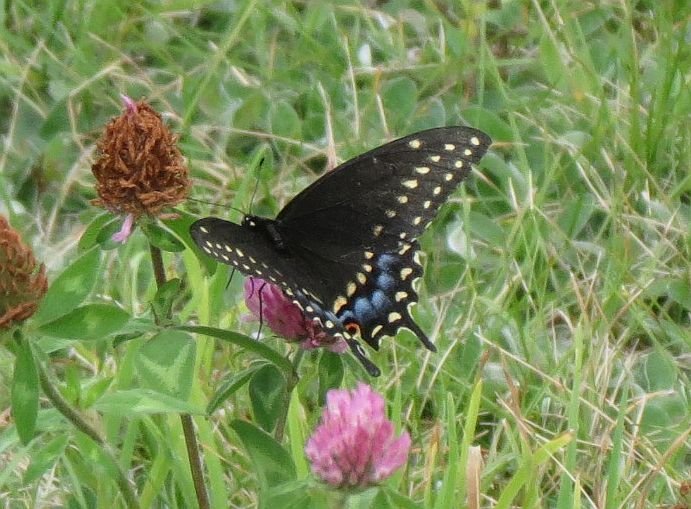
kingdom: Animalia
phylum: Arthropoda
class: Insecta
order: Lepidoptera
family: Papilionidae
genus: Papilio
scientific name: Papilio polyxenes
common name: Black Swallowtail
